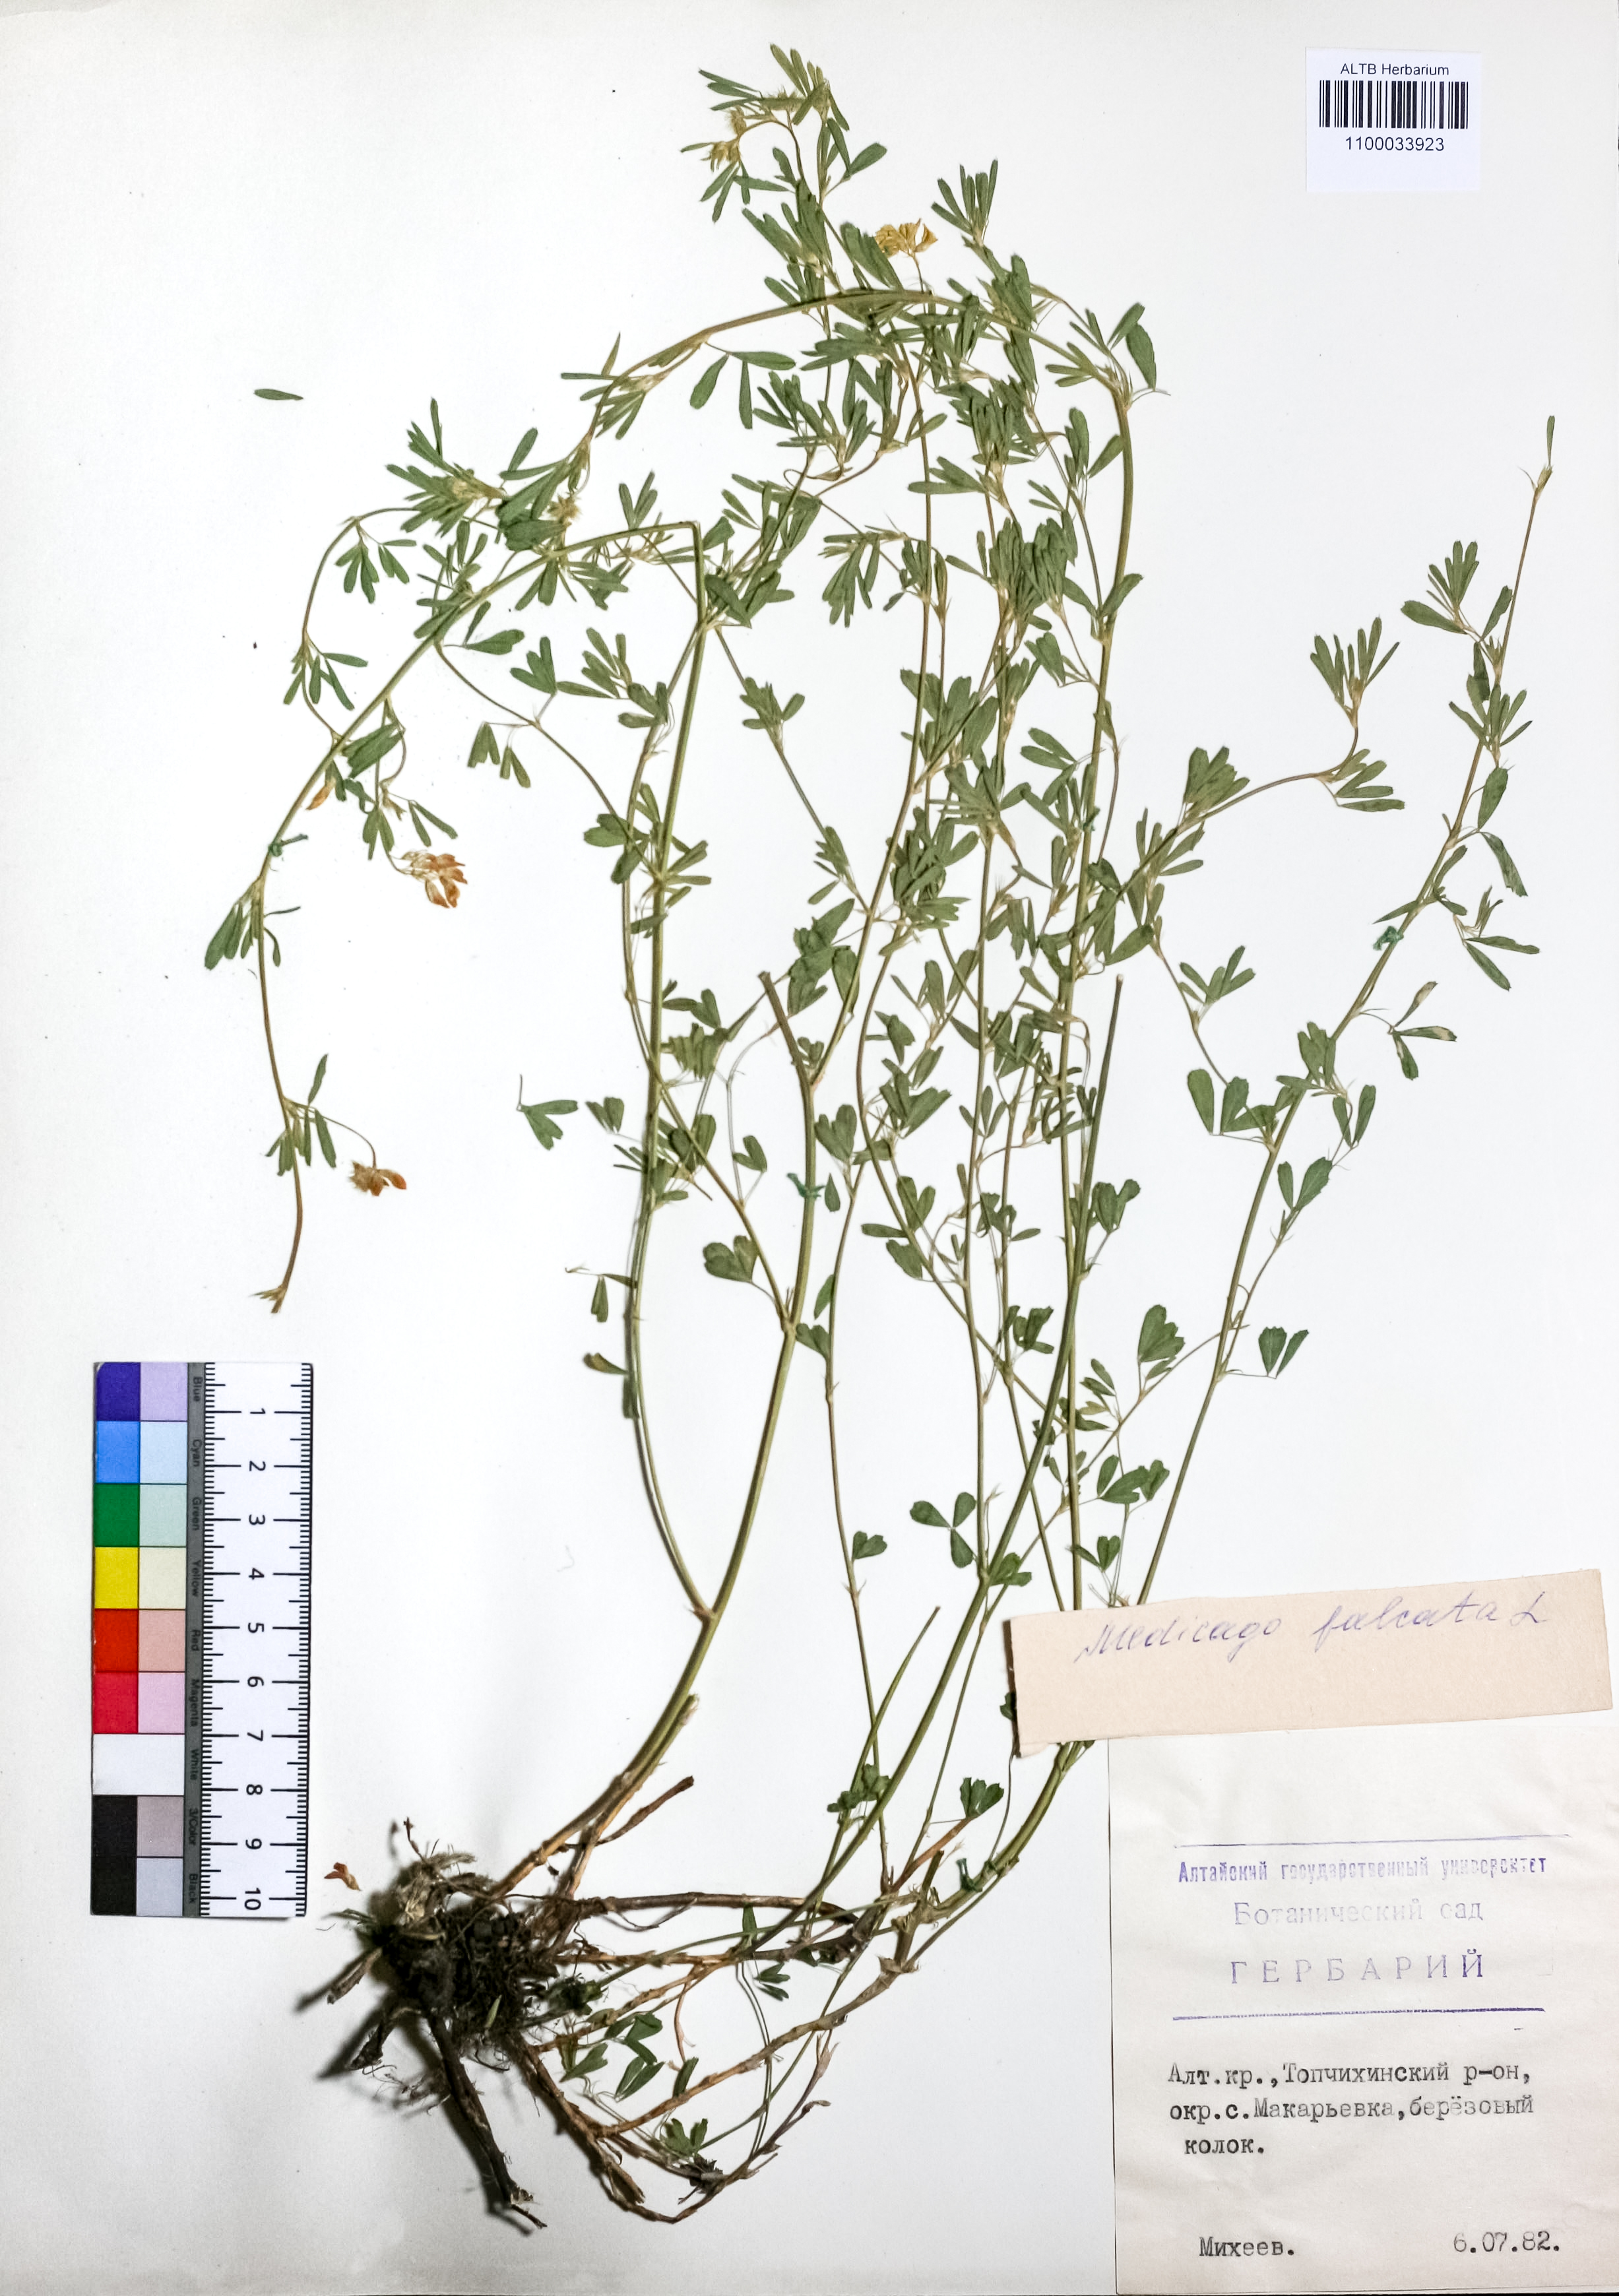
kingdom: Plantae
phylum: Tracheophyta
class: Magnoliopsida
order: Fabales
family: Fabaceae
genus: Medicago
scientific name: Medicago falcata
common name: Sickle medick
